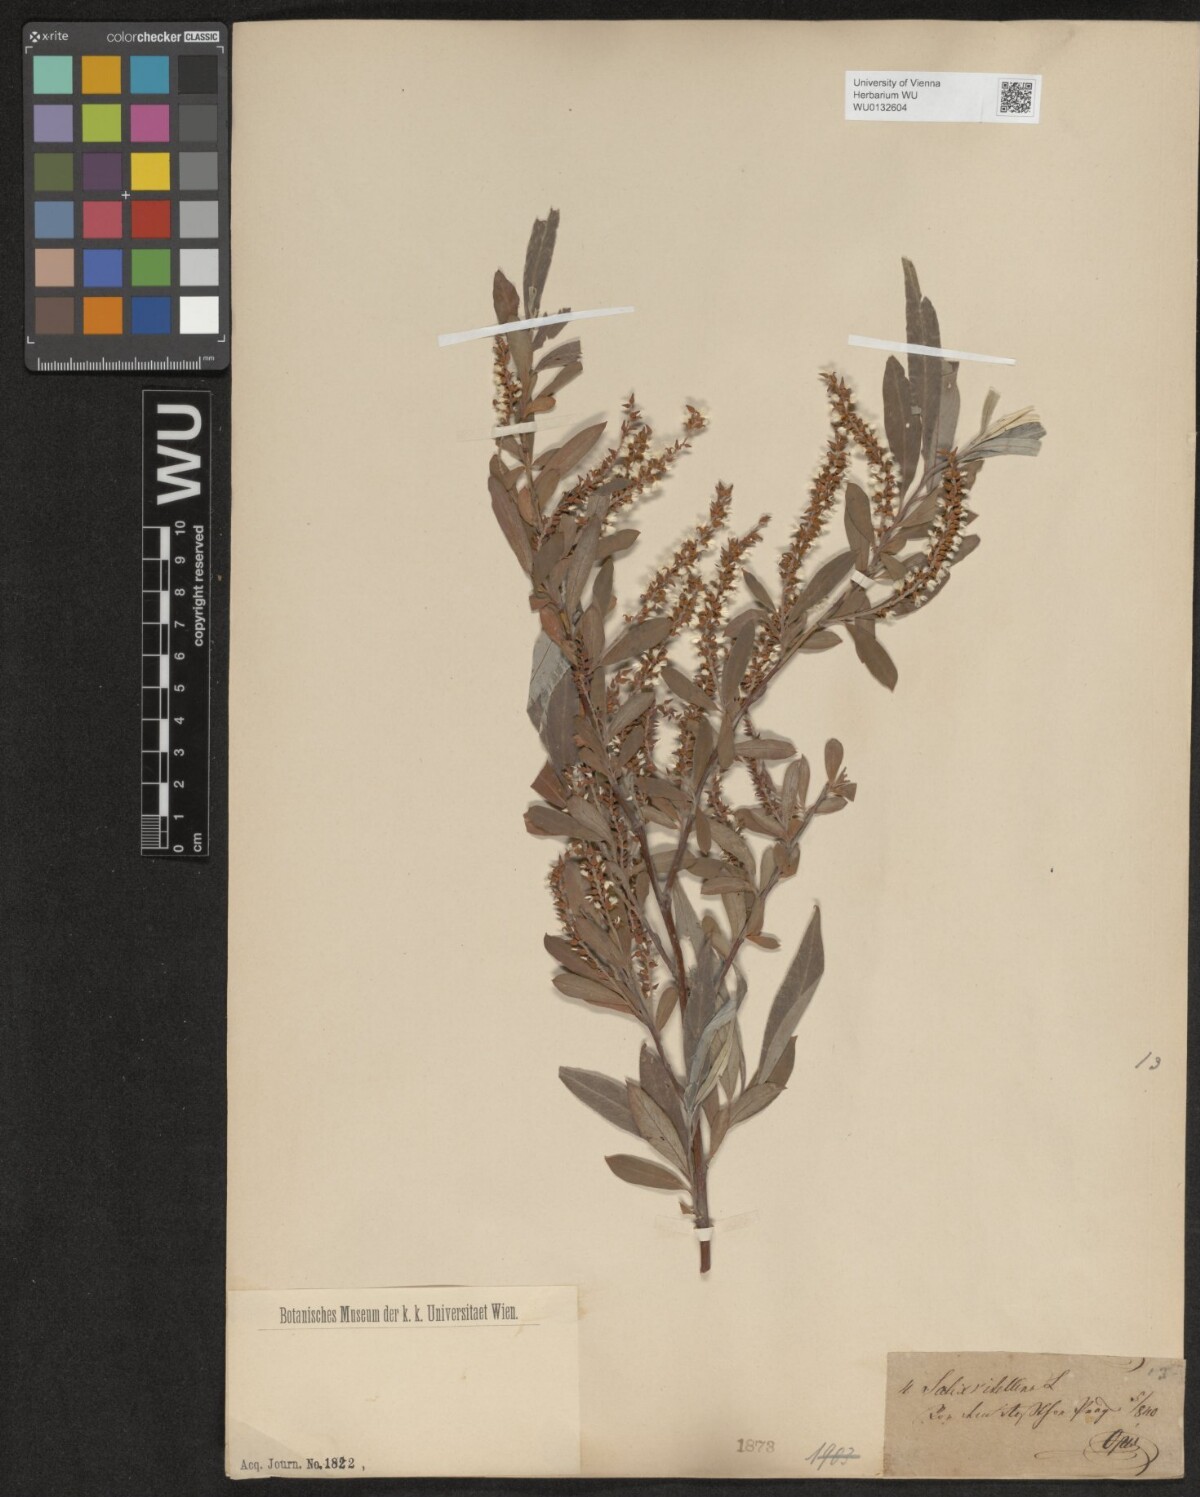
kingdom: Plantae
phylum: Tracheophyta
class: Magnoliopsida
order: Malpighiales
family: Salicaceae
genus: Salix
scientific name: Salix alba
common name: White willow
